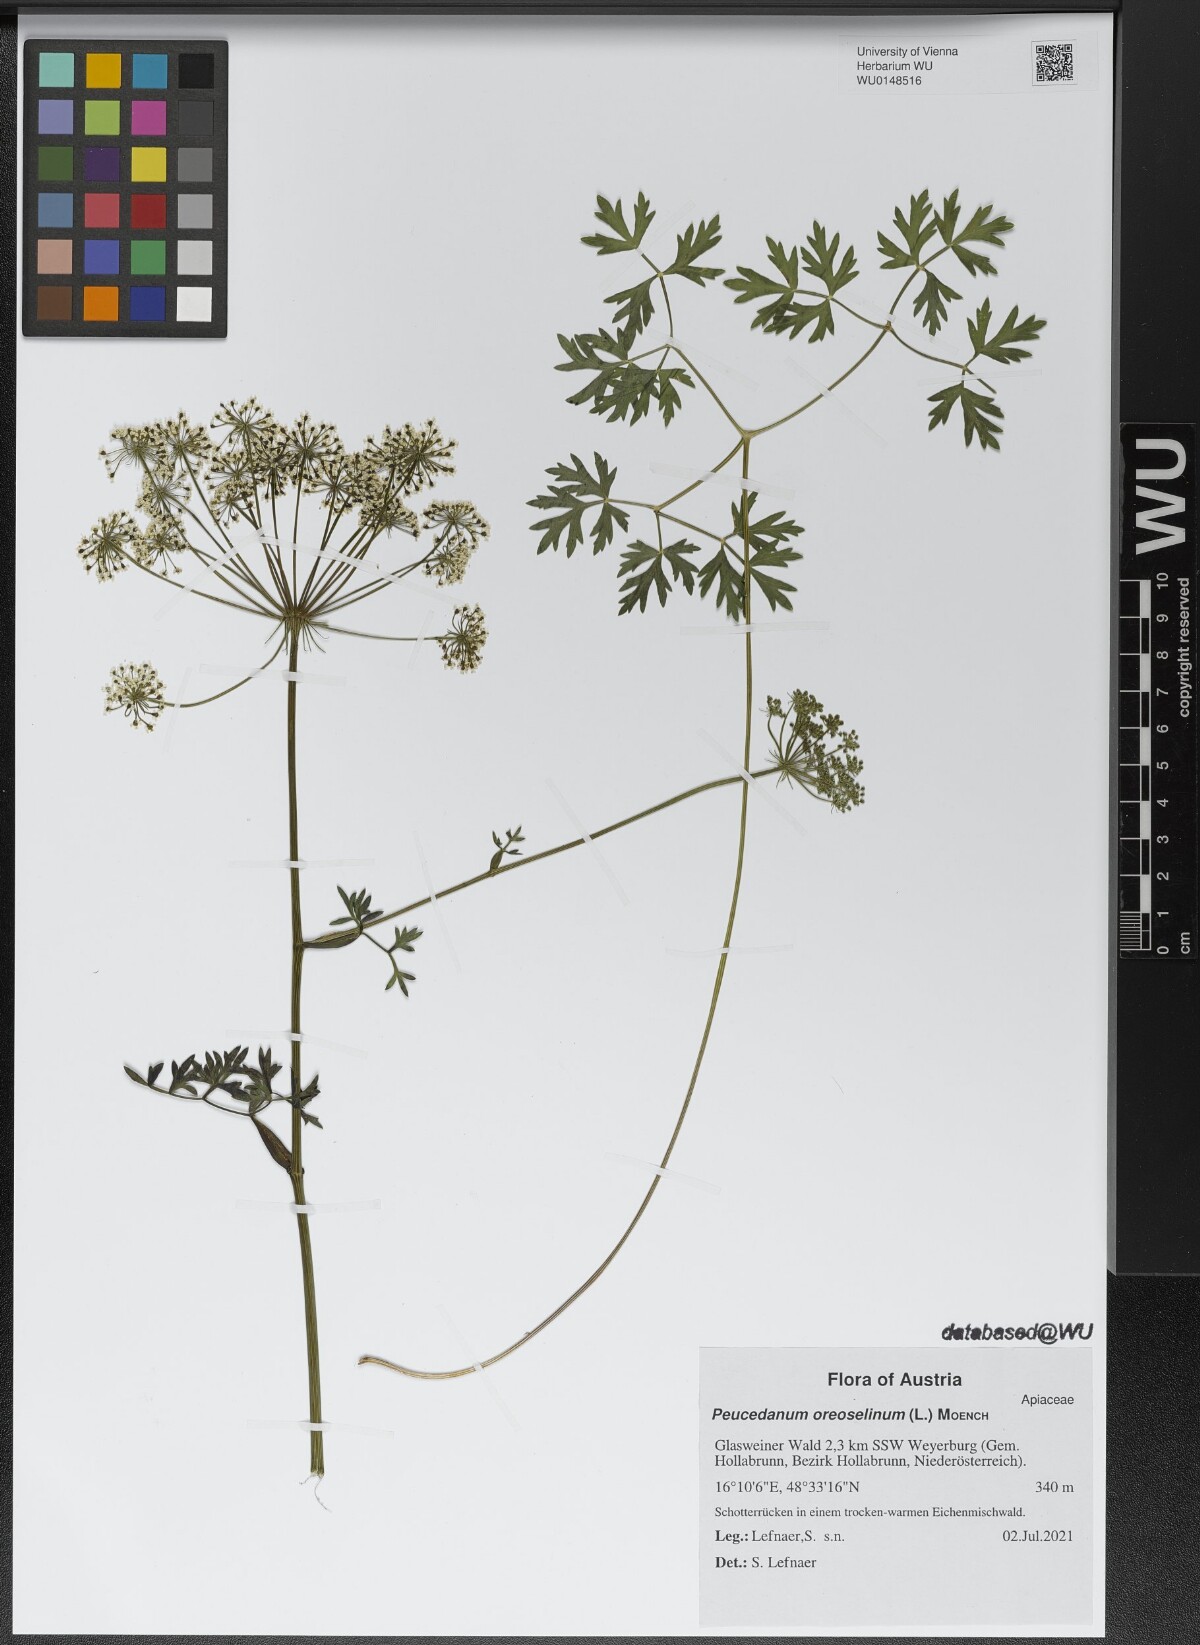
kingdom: Plantae
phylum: Tracheophyta
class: Magnoliopsida
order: Apiales
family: Apiaceae
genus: Oreoselinum
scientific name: Oreoselinum nigrum
